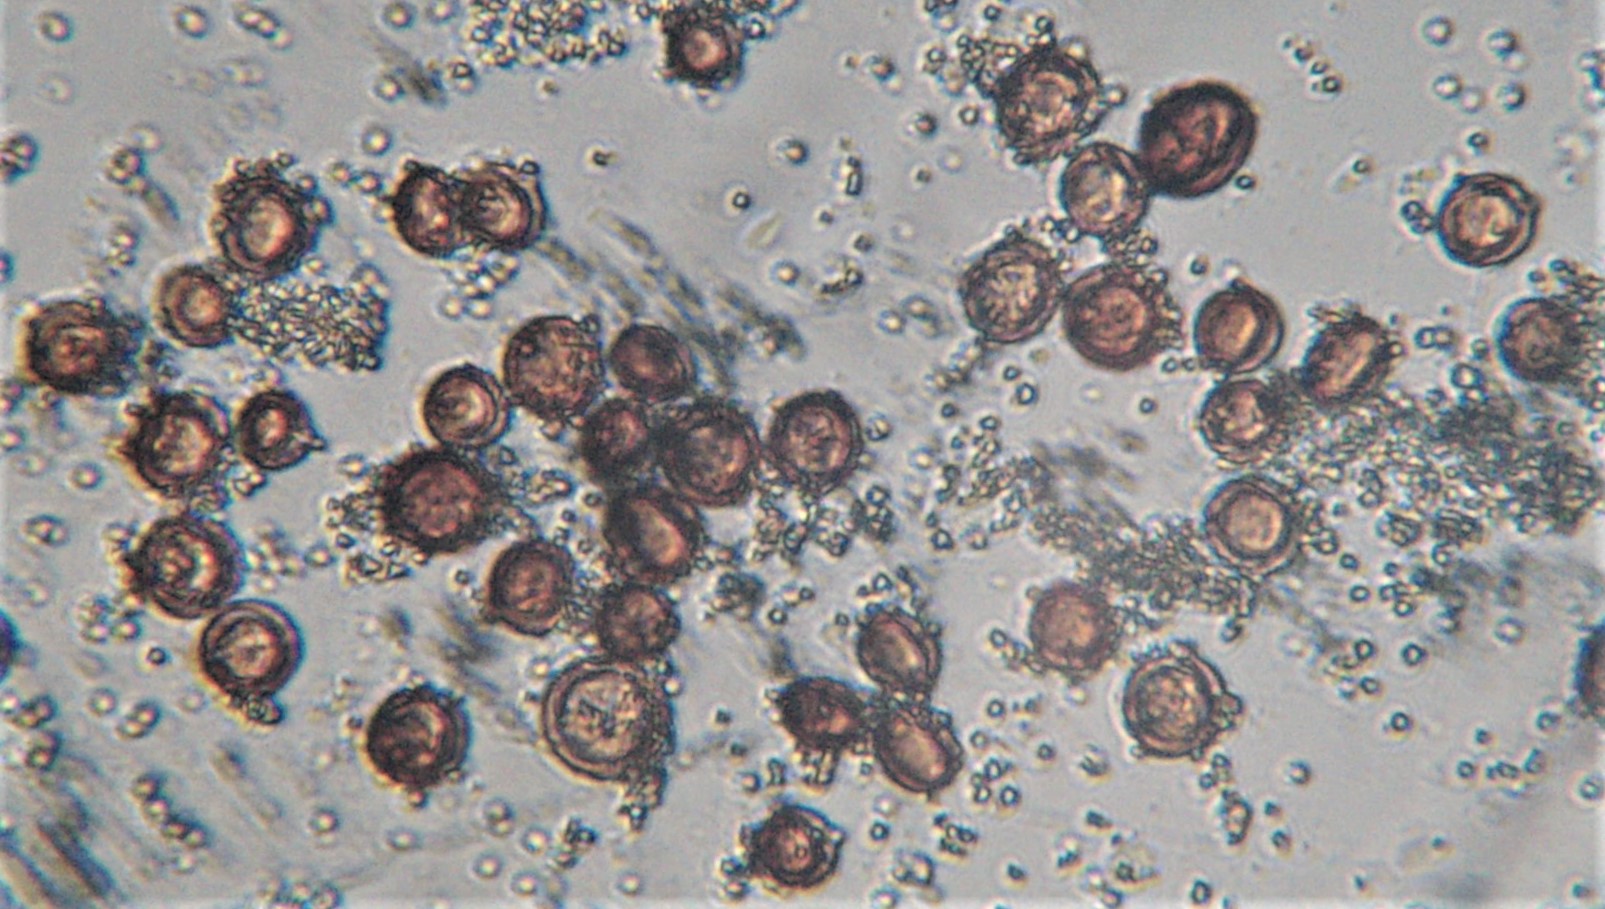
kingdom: Protozoa
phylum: Mycetozoa
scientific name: Mycetozoa
